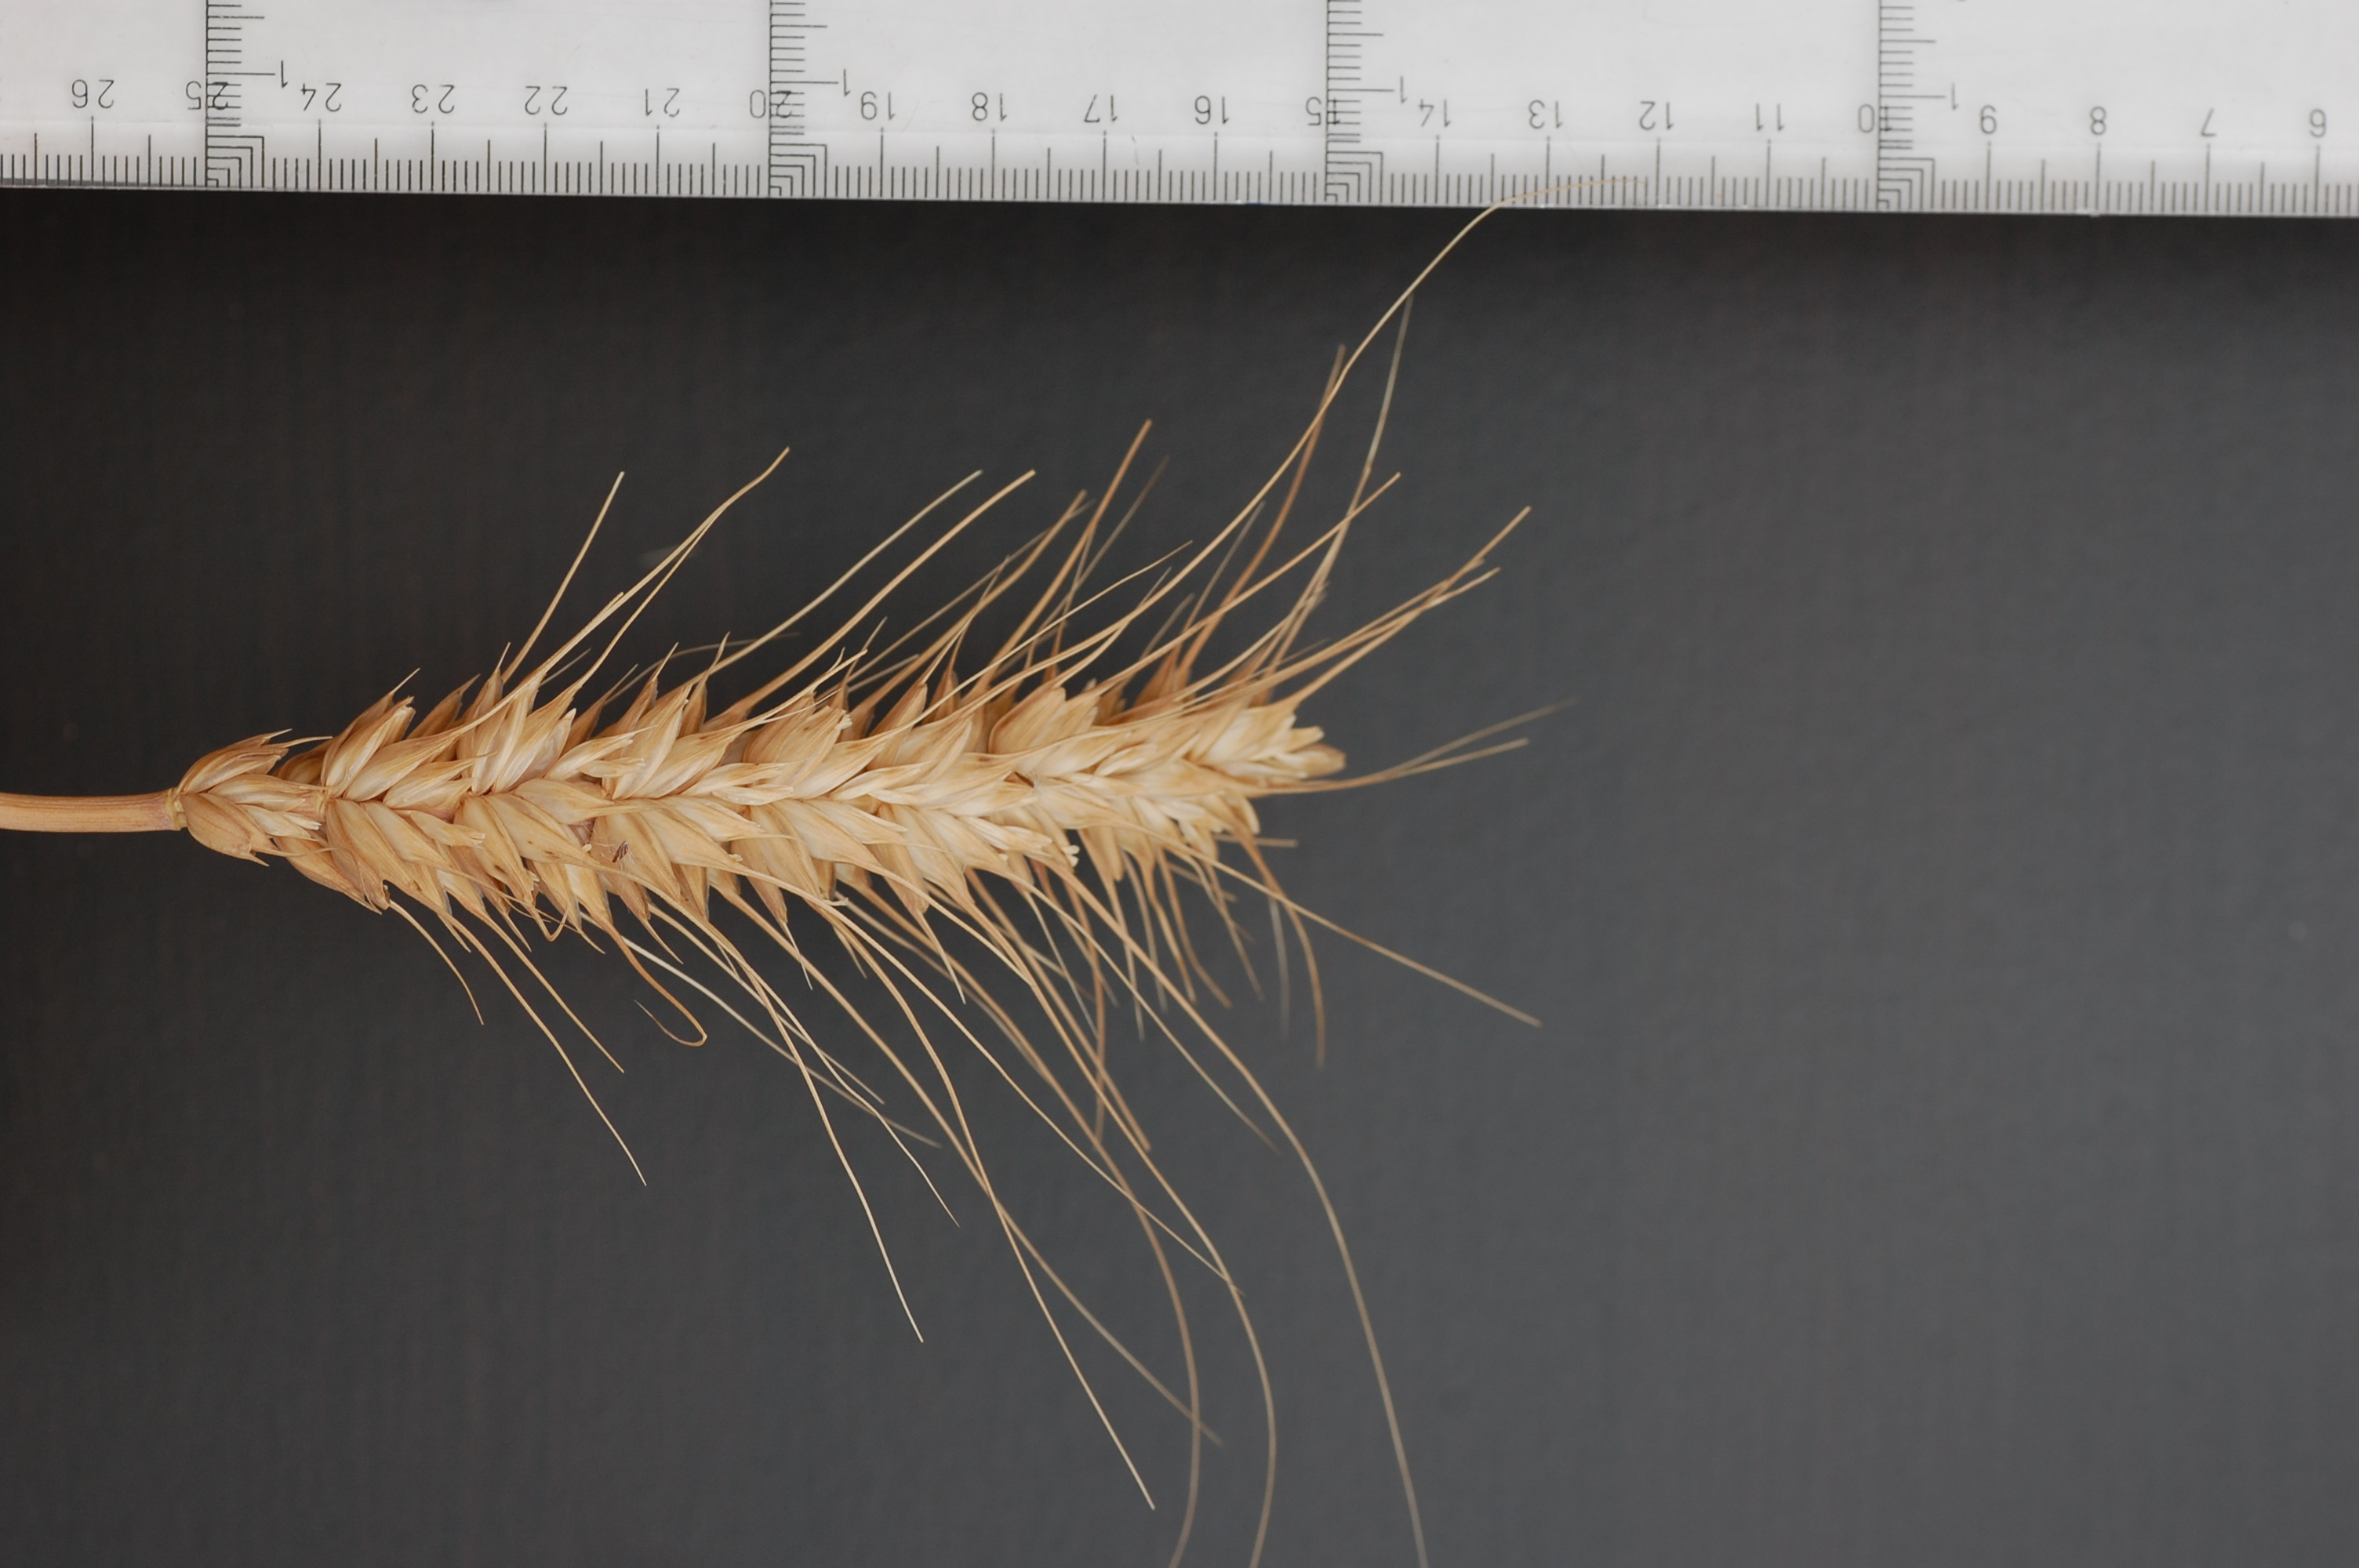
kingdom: Plantae
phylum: Tracheophyta
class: Liliopsida
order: Poales
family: Poaceae
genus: Triticum
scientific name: Triticum aestivum
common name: Common wheat
